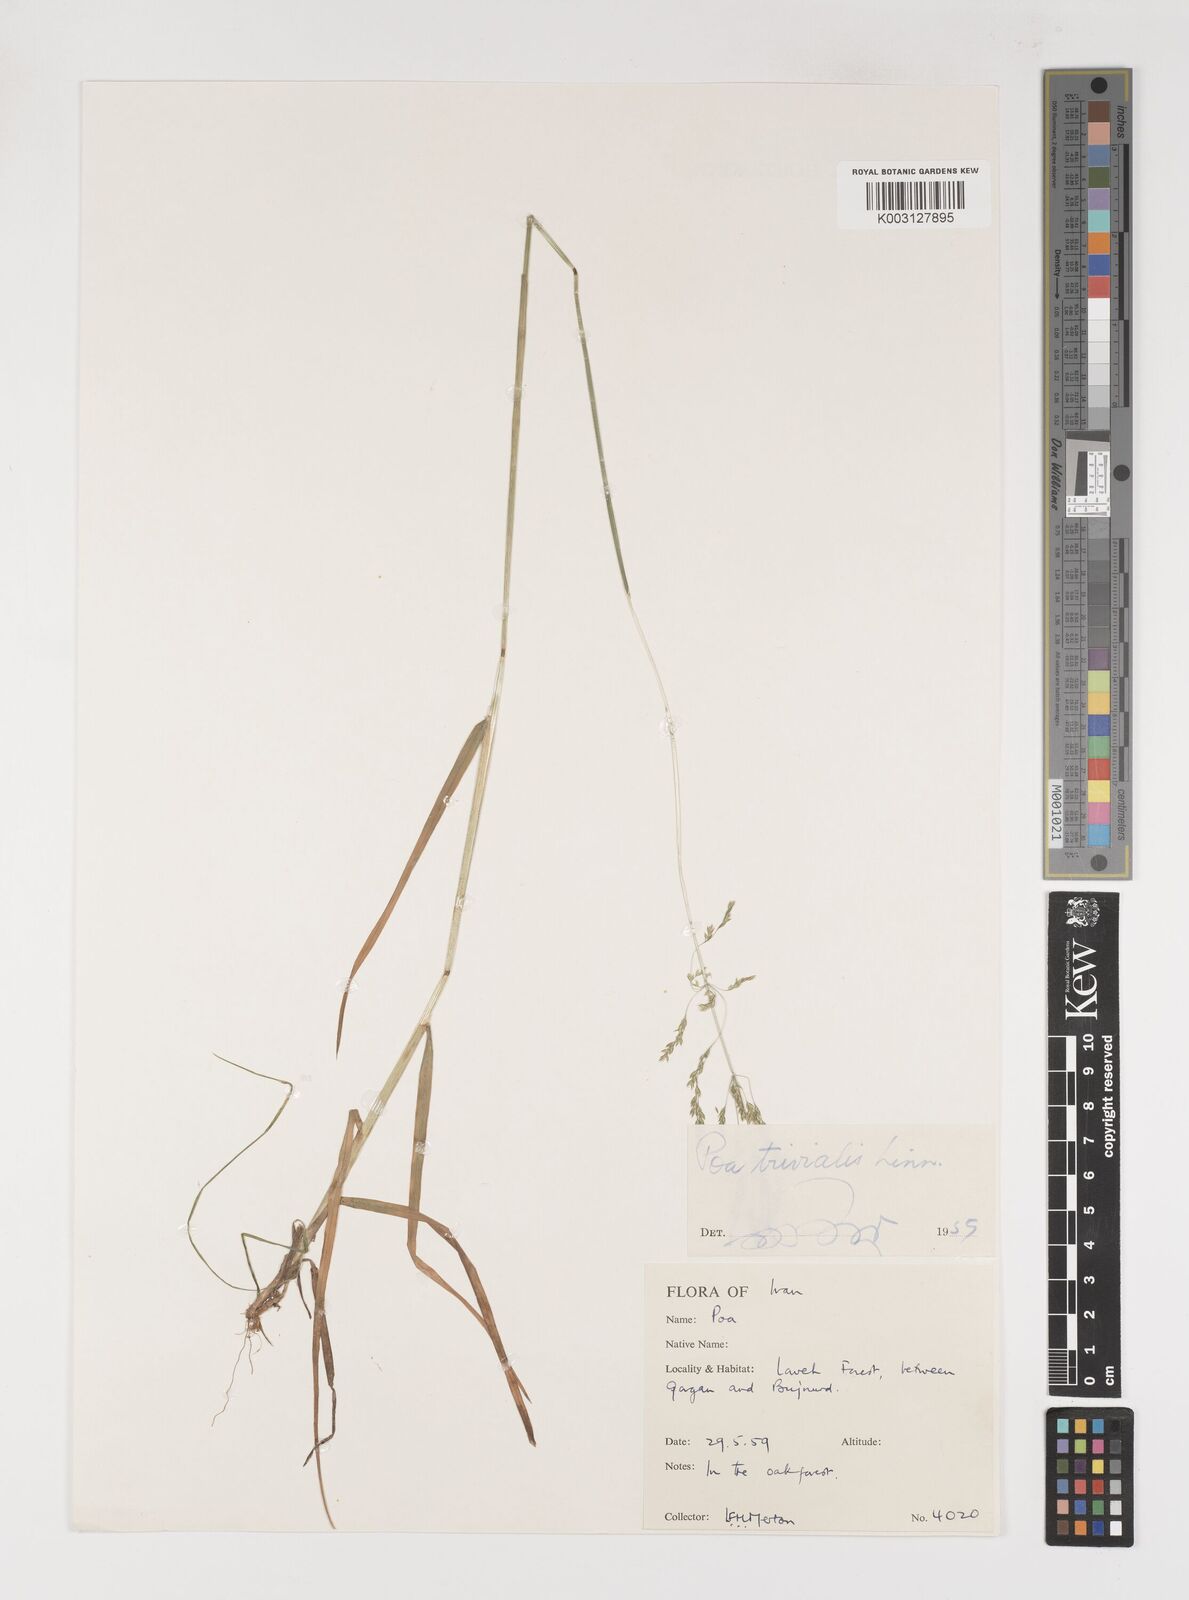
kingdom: Plantae
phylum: Tracheophyta
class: Liliopsida
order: Poales
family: Poaceae
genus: Poa
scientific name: Poa trivialis
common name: Rough bluegrass
